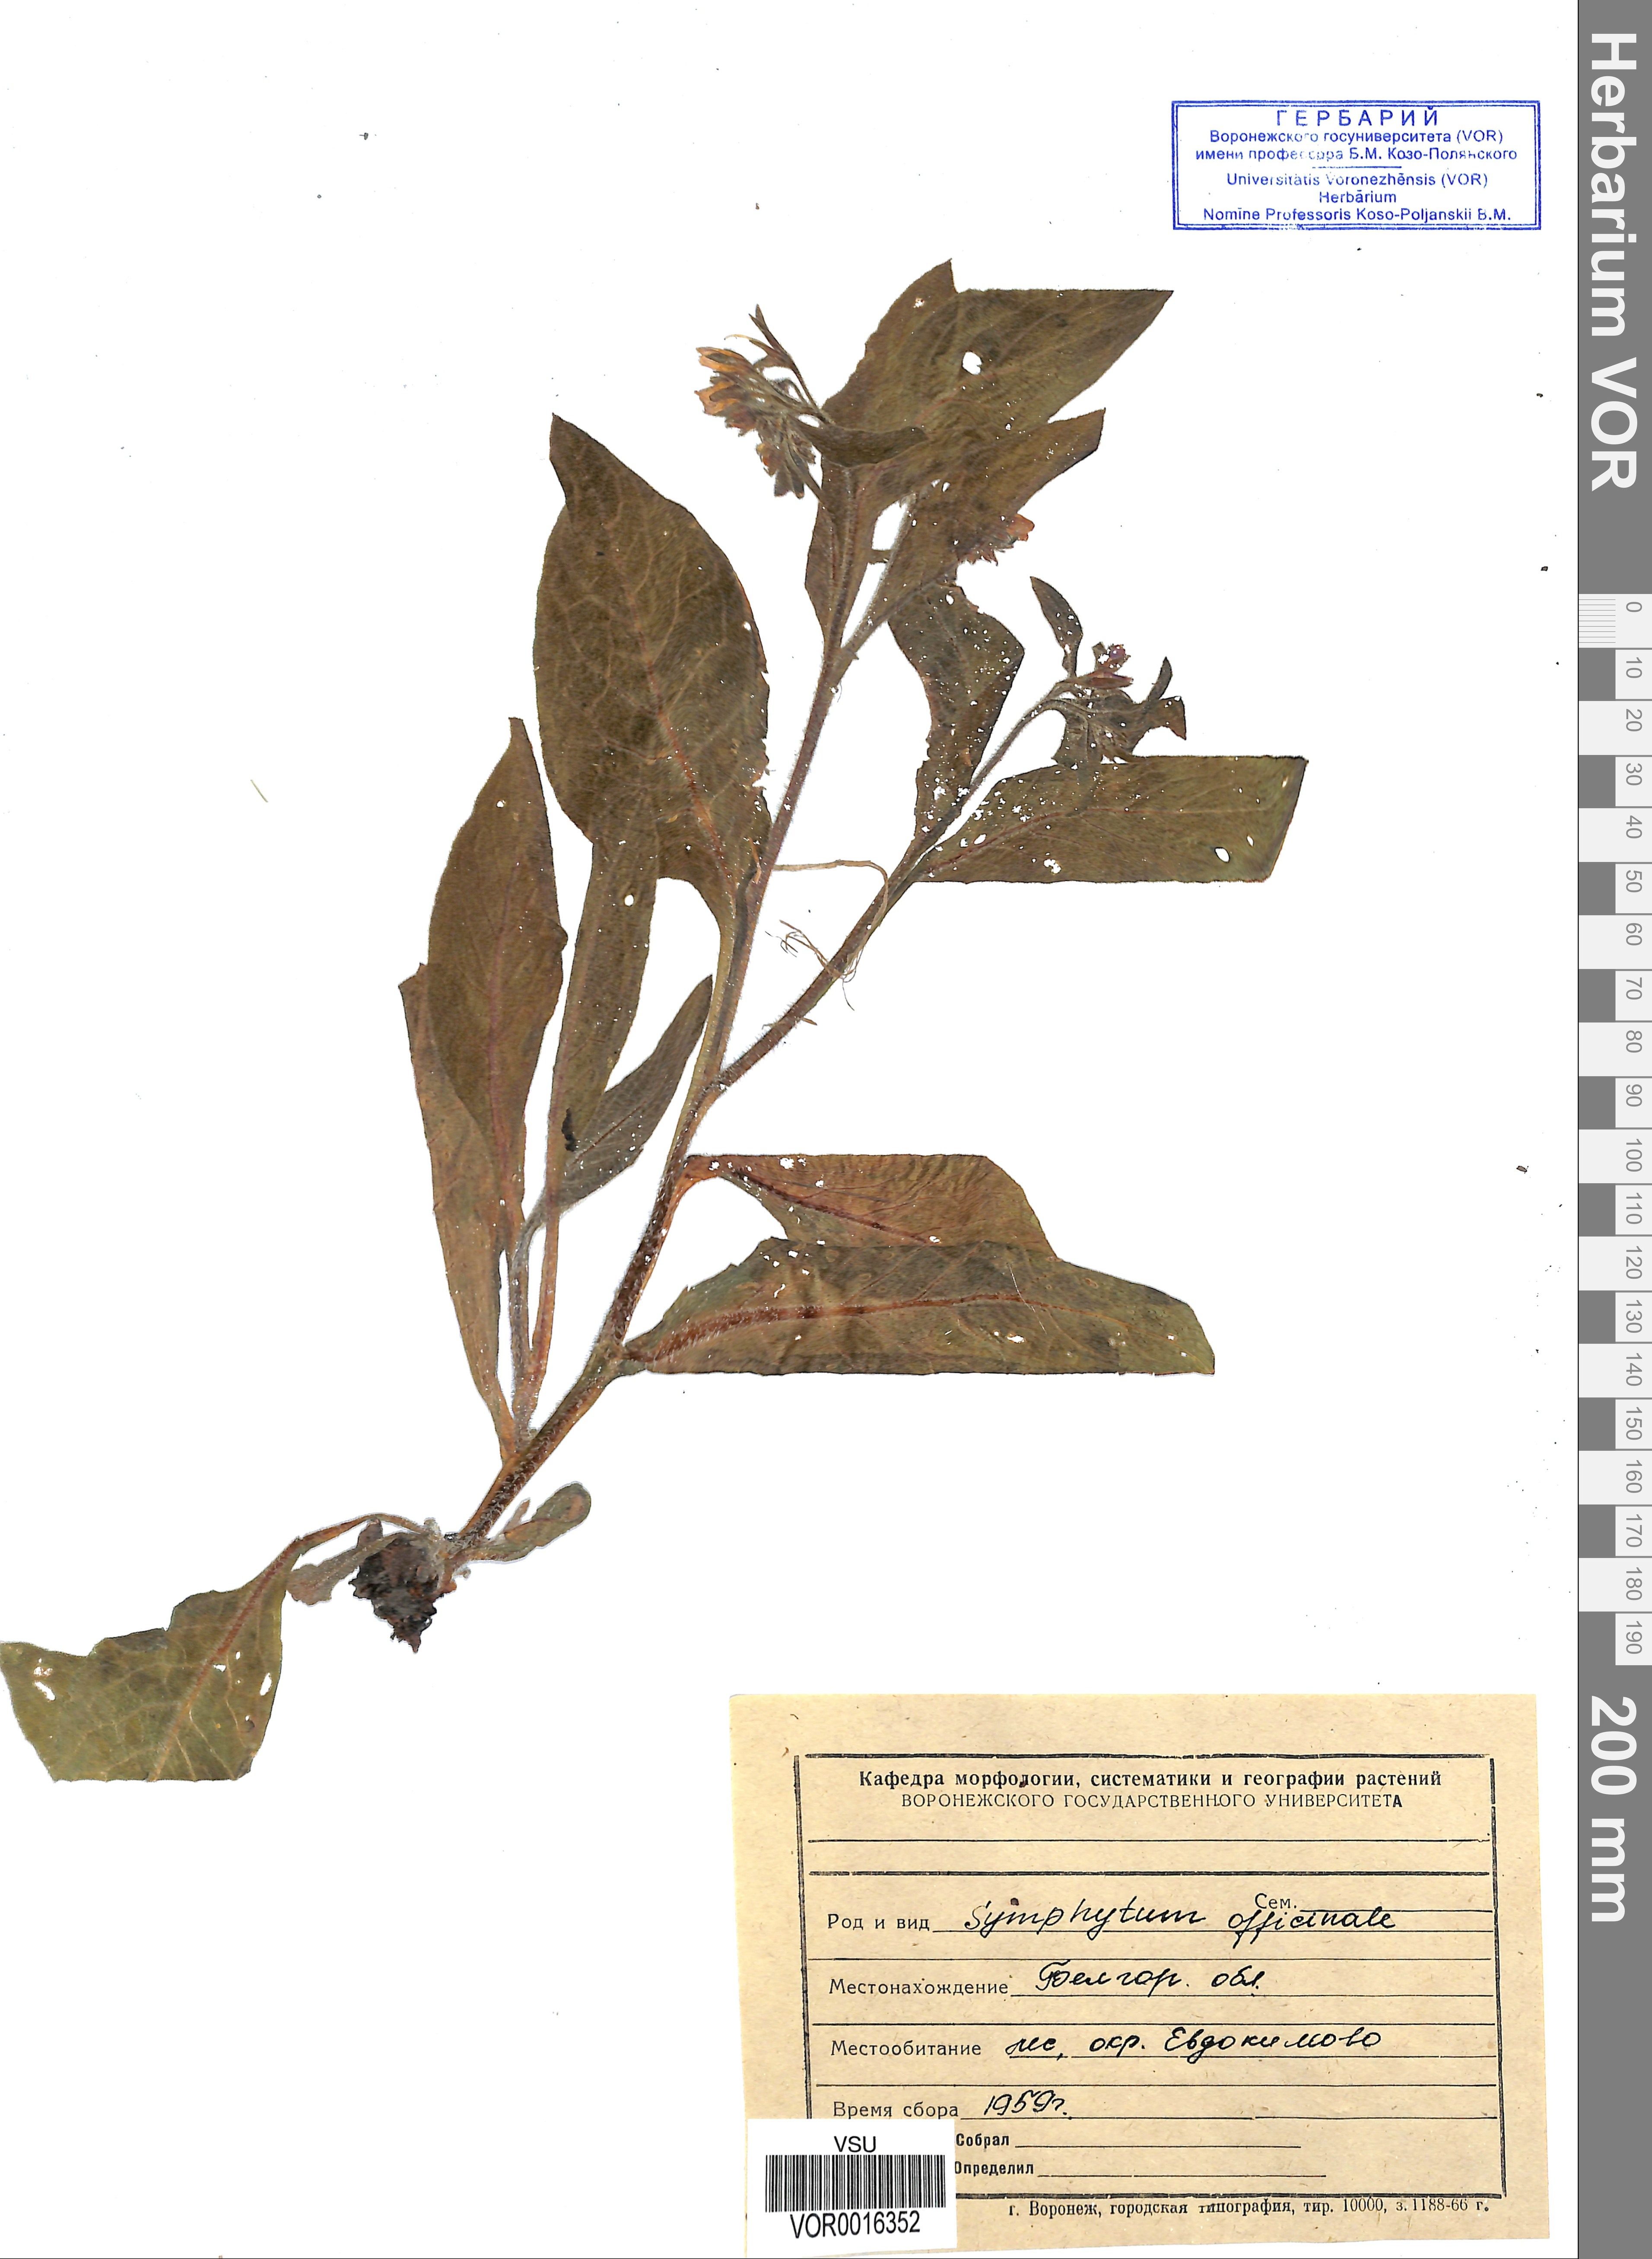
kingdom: Plantae
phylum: Tracheophyta
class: Magnoliopsida
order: Boraginales
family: Boraginaceae
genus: Symphytum
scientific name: Symphytum officinale
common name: Common comfrey
